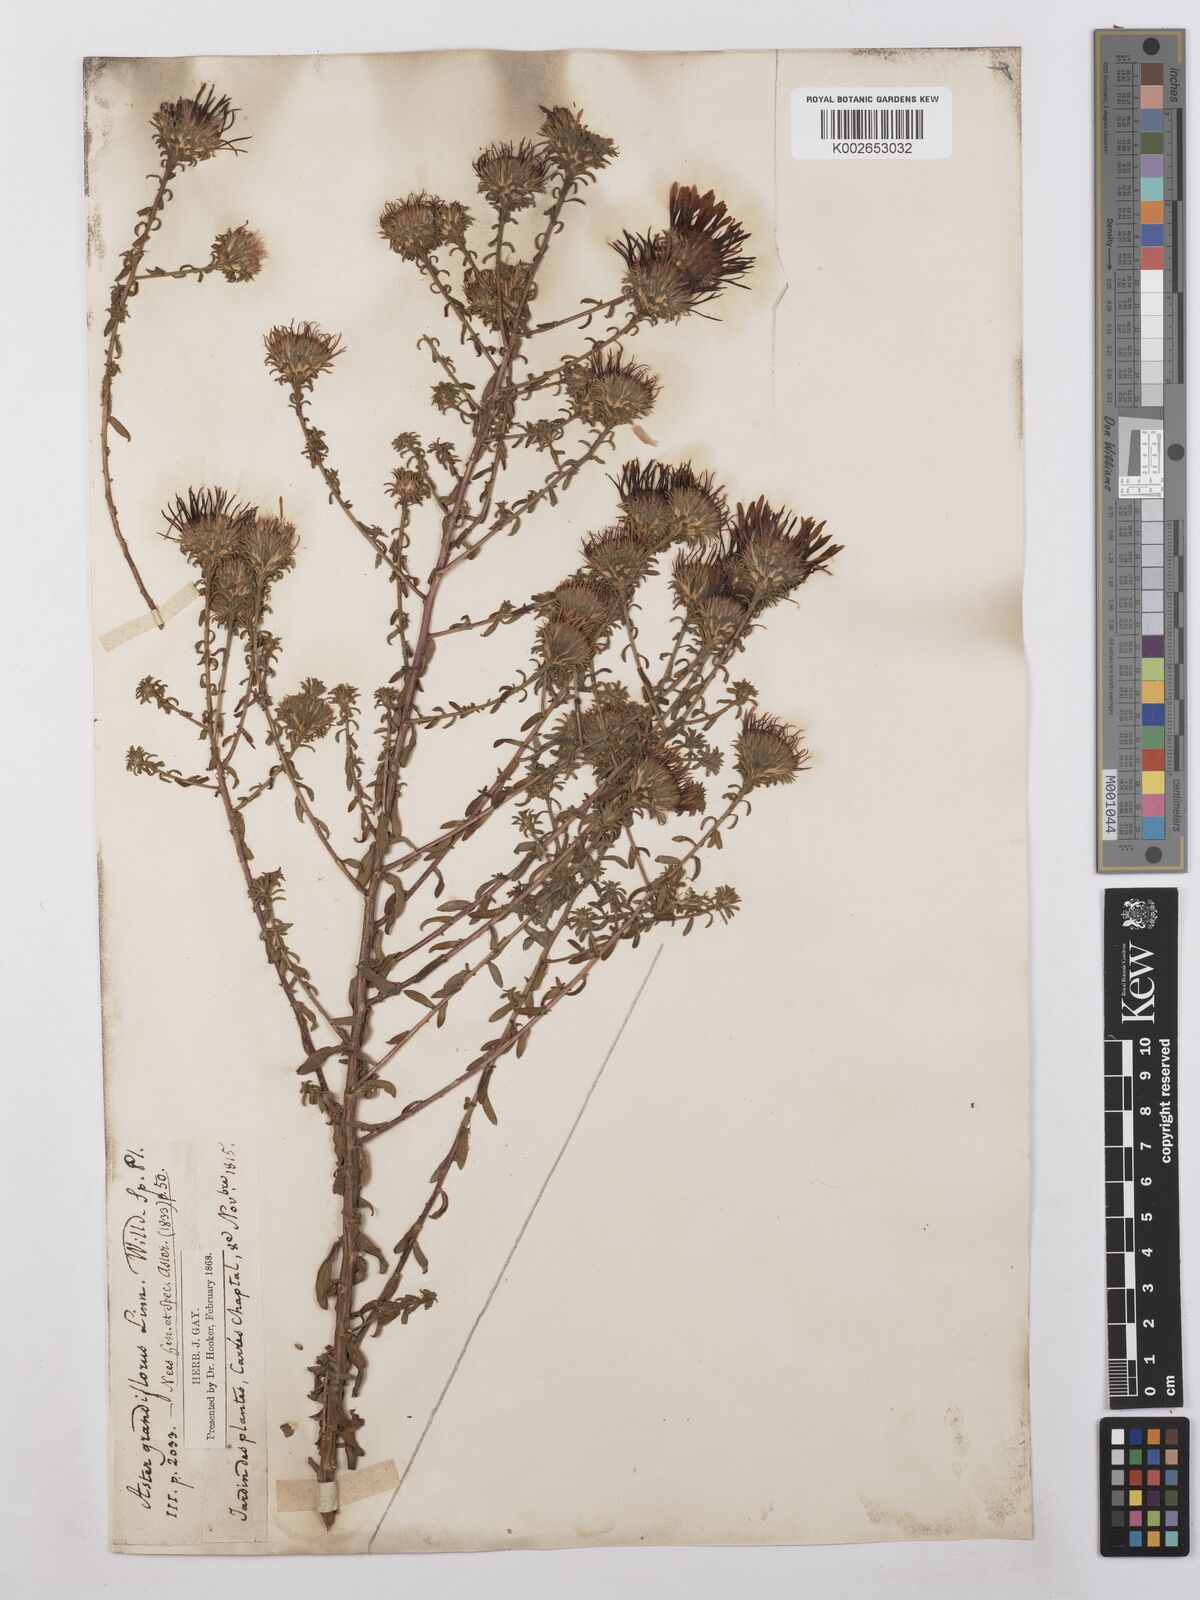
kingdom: Plantae
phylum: Tracheophyta
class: Magnoliopsida
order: Asterales
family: Asteraceae
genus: Symphyotrichum
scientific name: Symphyotrichum grandiflorum
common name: Big-head aster
